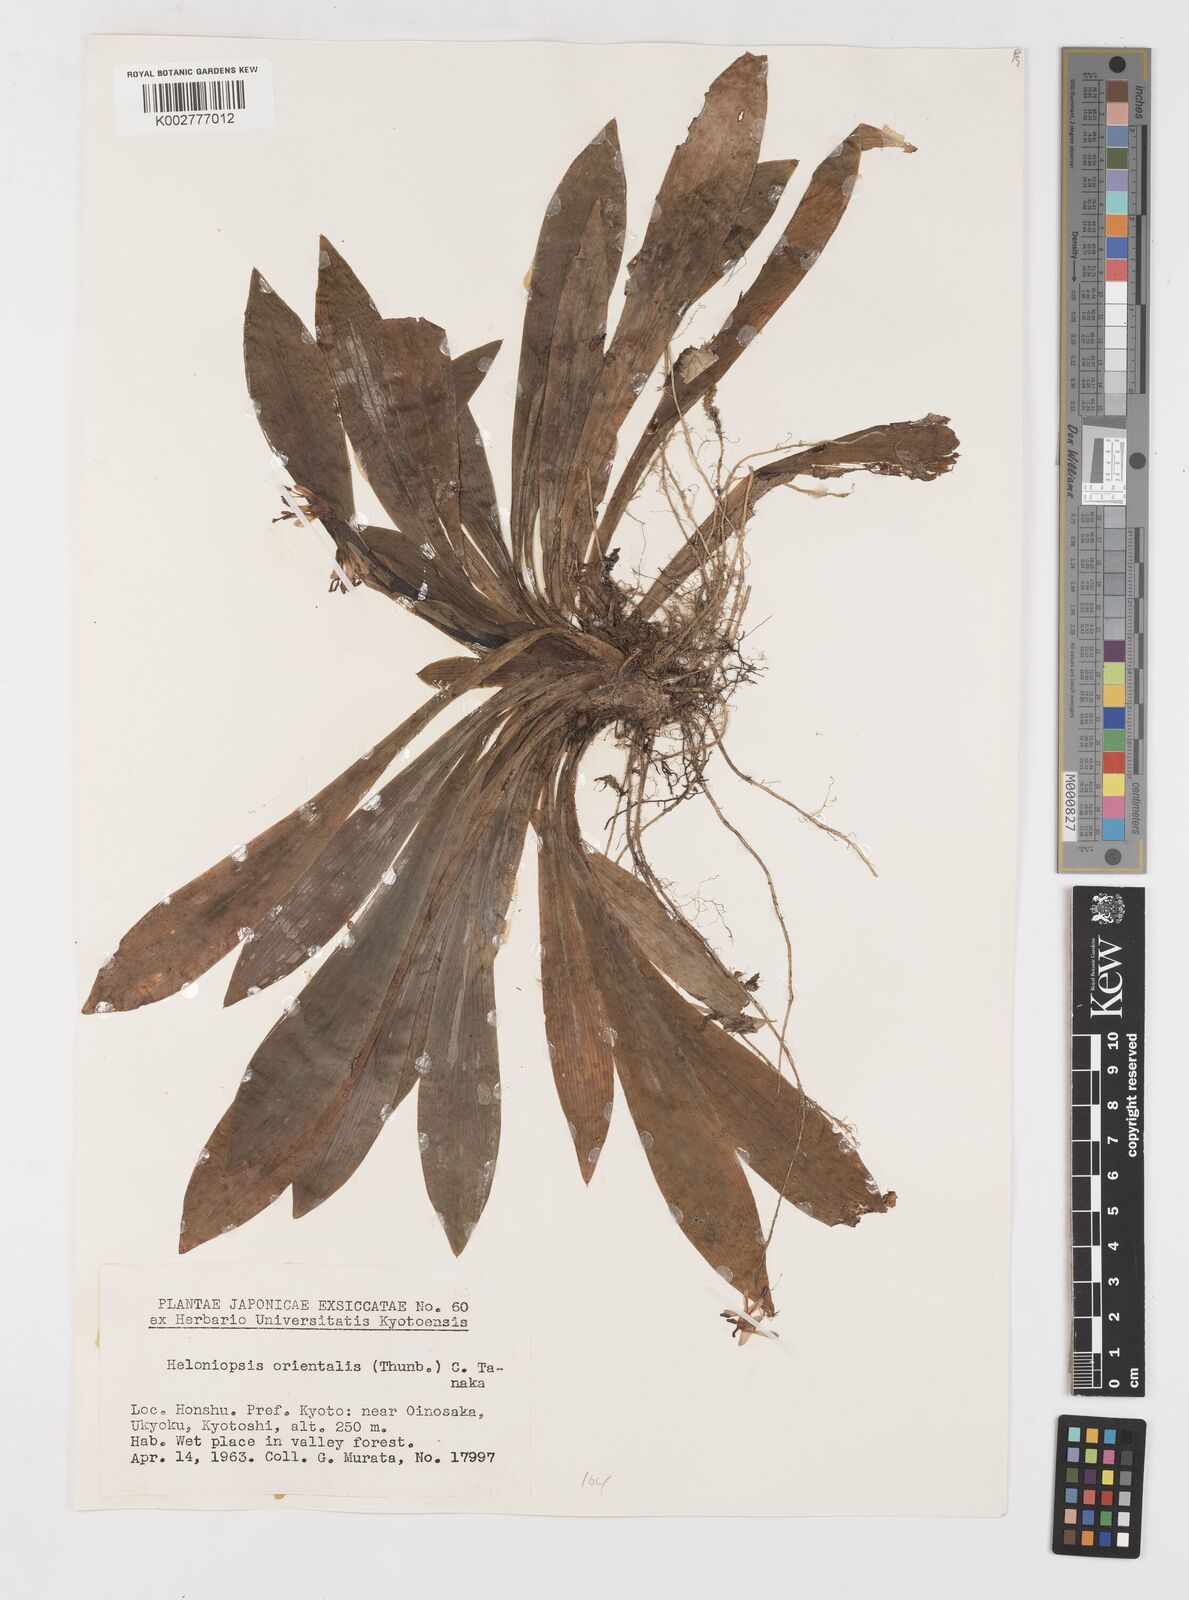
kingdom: Plantae
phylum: Tracheophyta
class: Liliopsida
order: Liliales
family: Melanthiaceae
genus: Helonias
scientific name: Helonias orientalis
